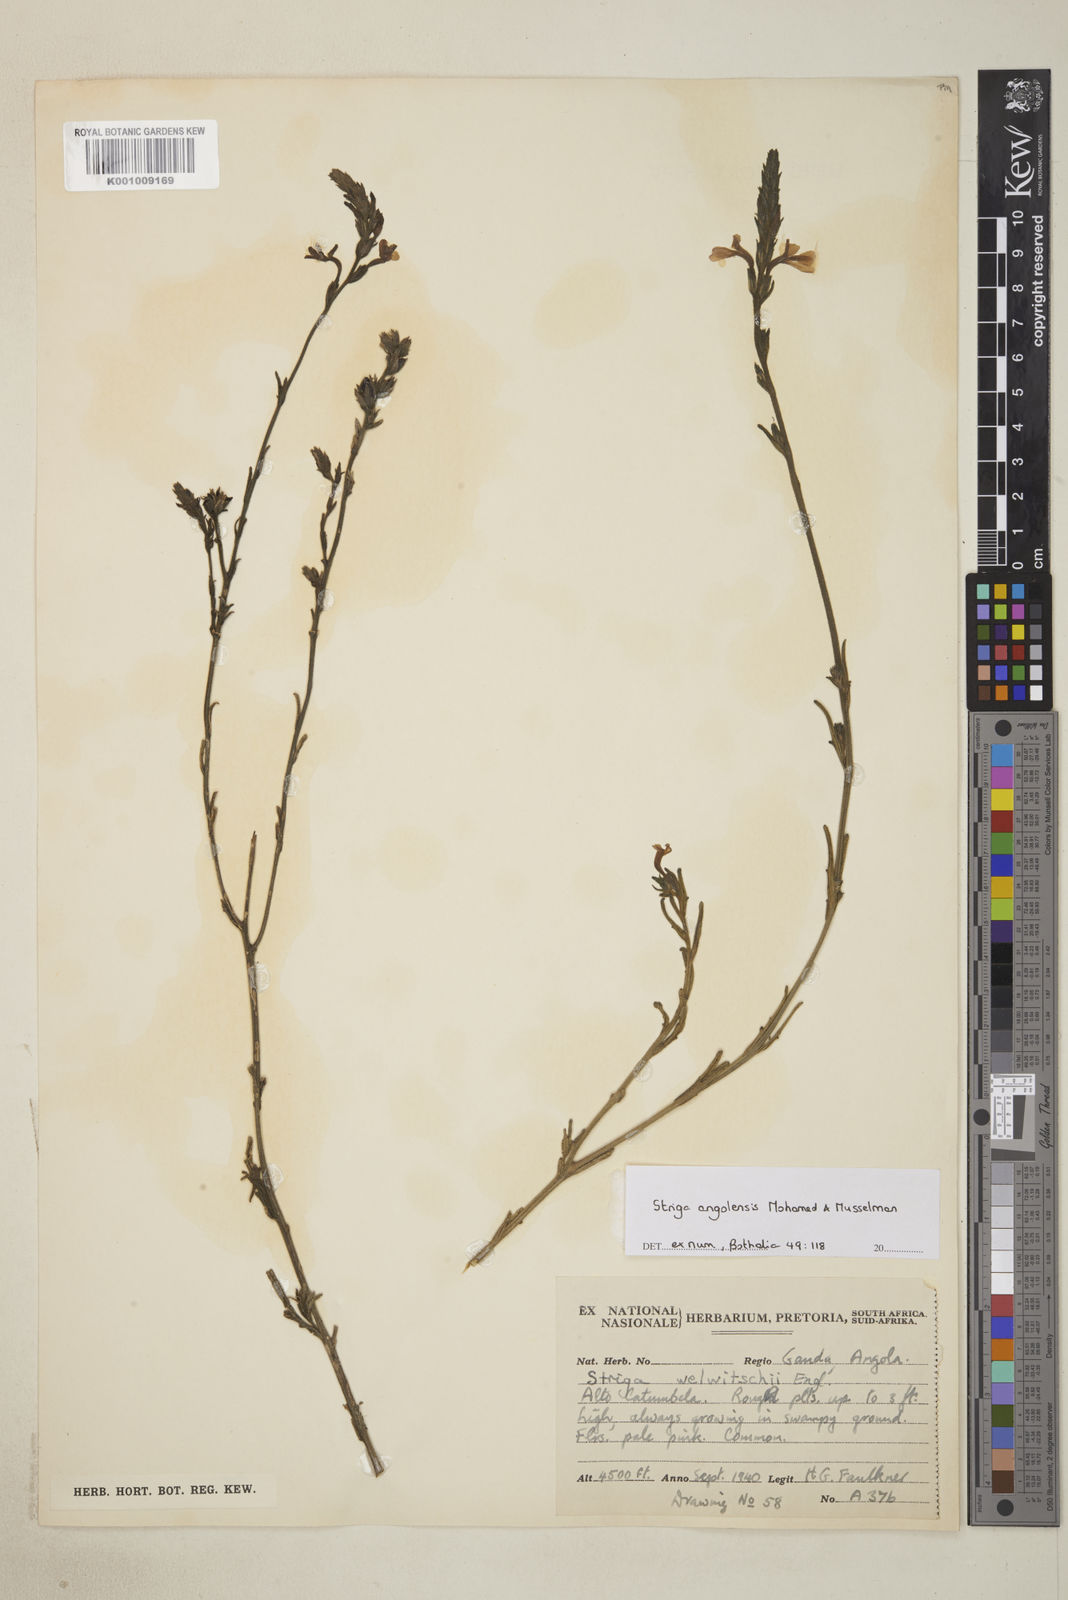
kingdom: Plantae
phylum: Tracheophyta
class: Magnoliopsida
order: Lamiales
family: Orobanchaceae
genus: Striga
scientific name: Striga angolensis
